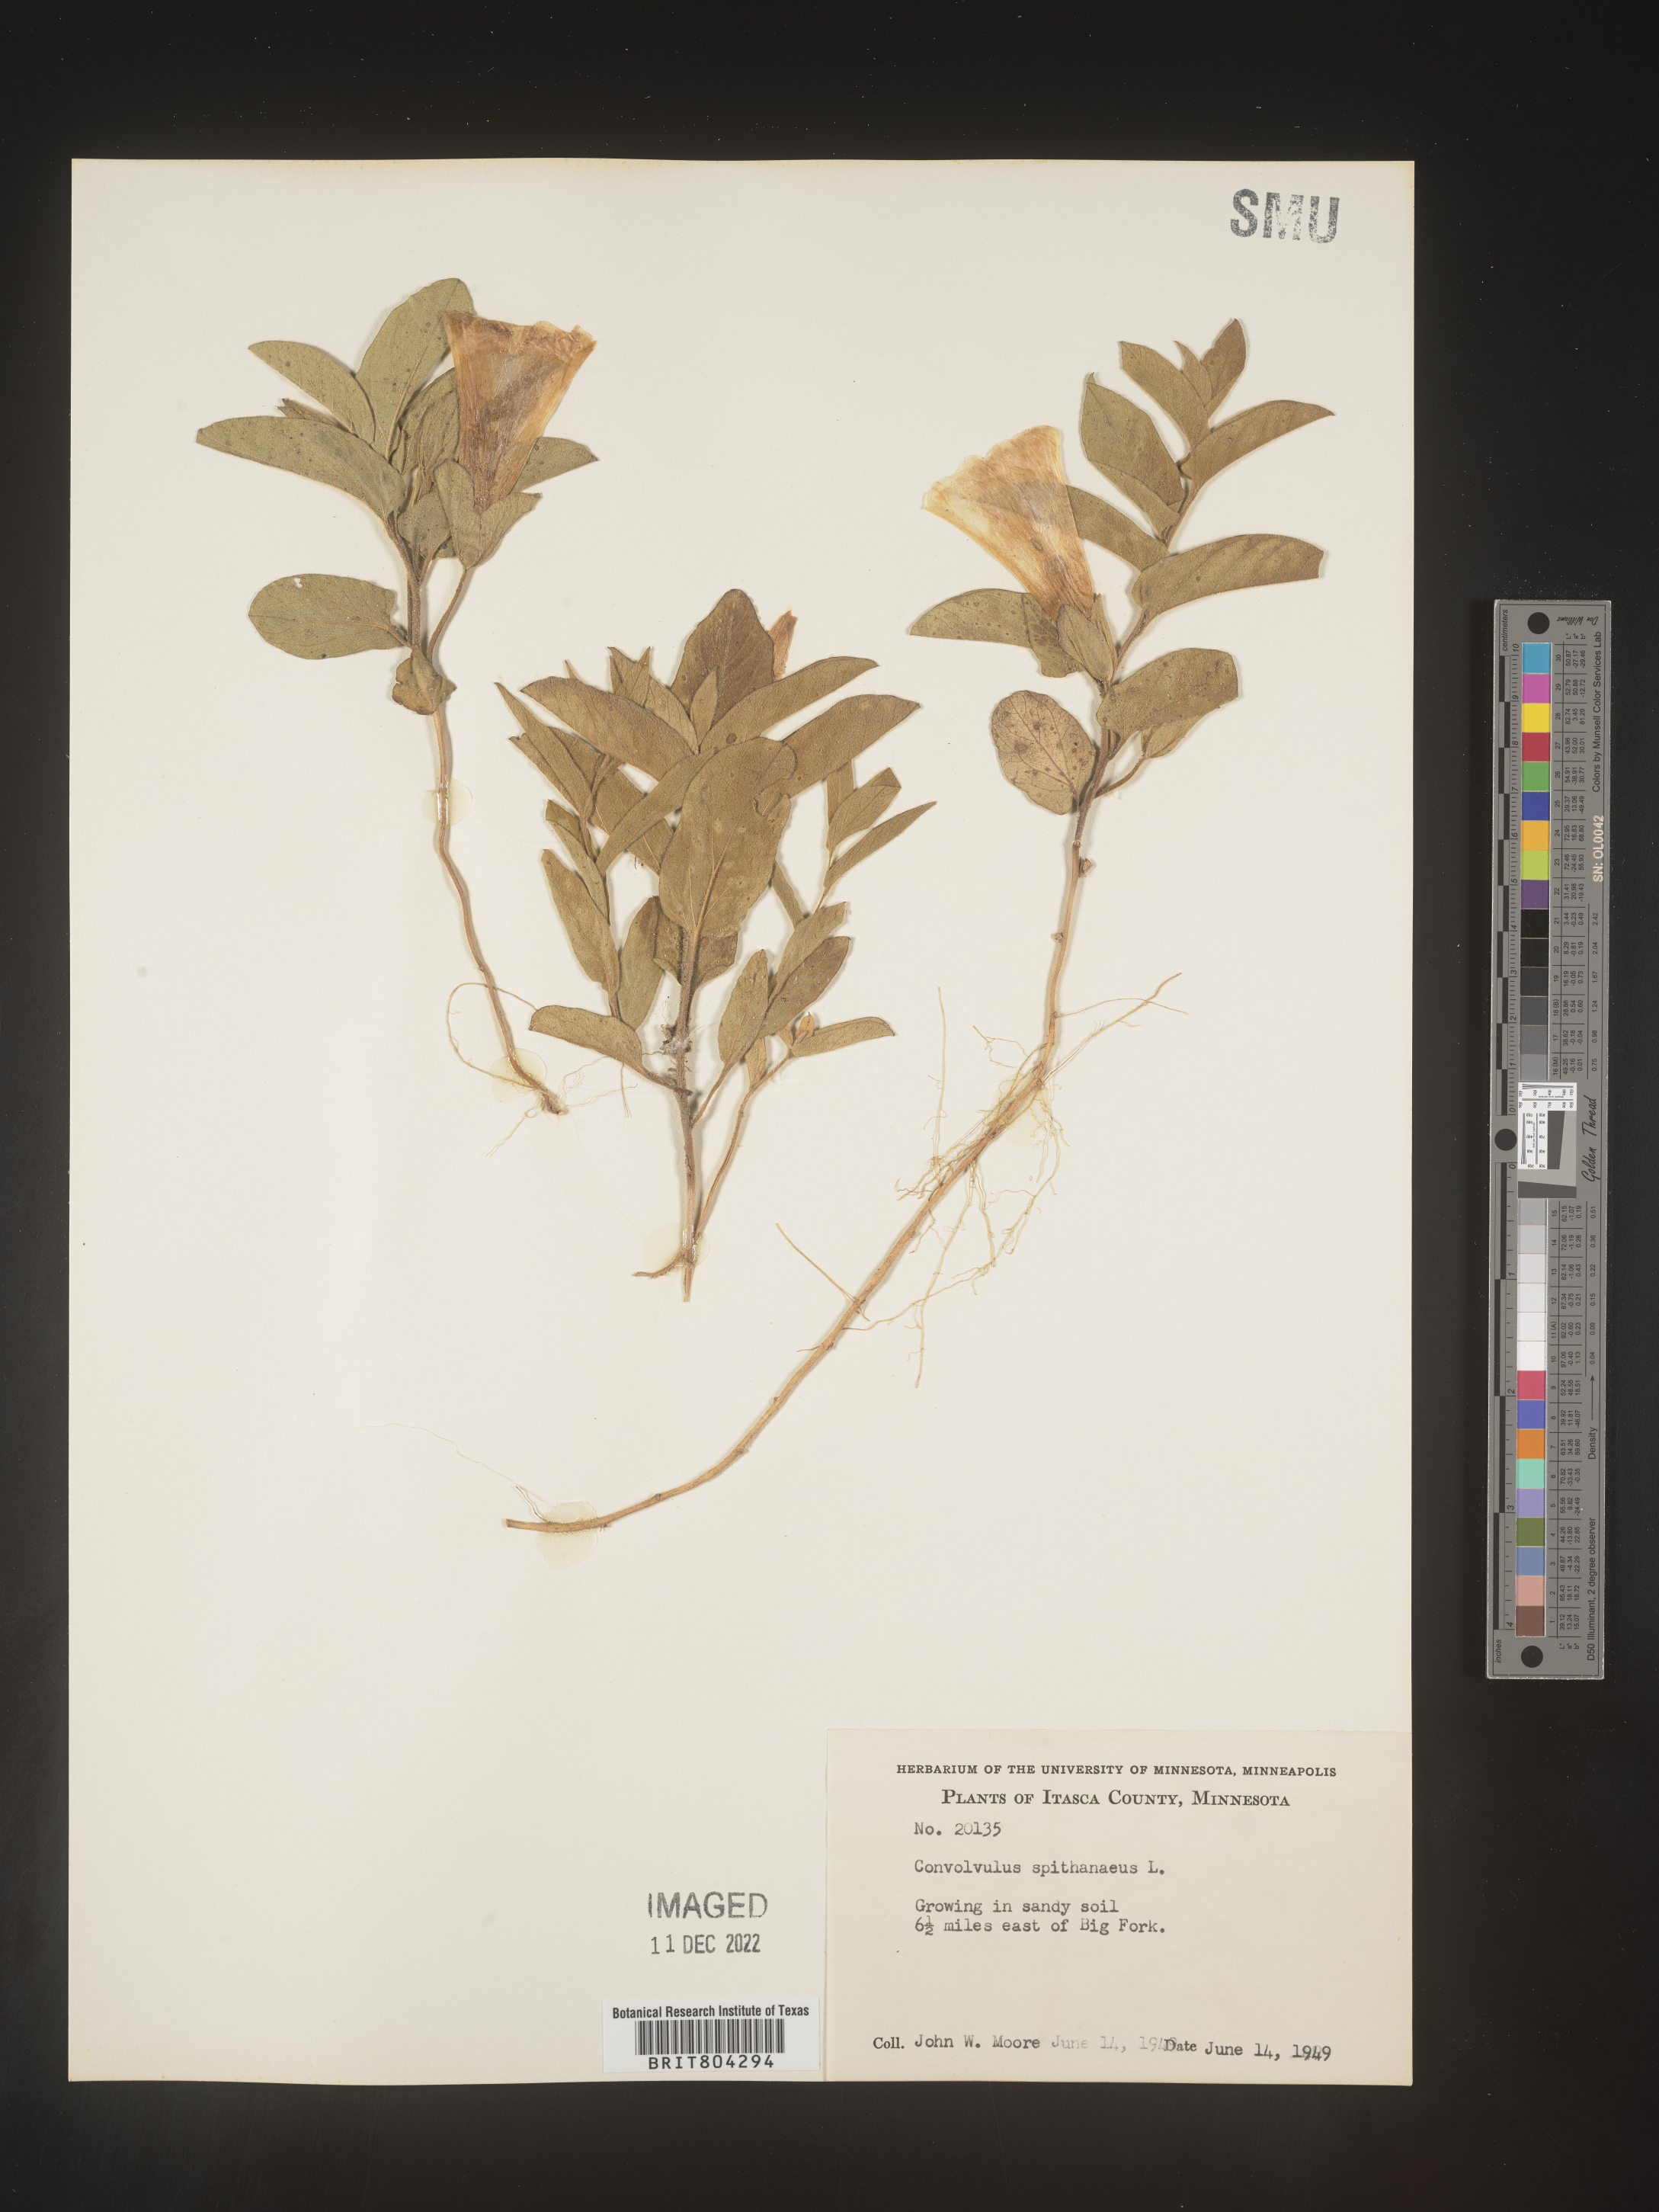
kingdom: Plantae
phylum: Tracheophyta
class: Magnoliopsida
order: Solanales
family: Convolvulaceae
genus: Calystegia
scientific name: Calystegia
